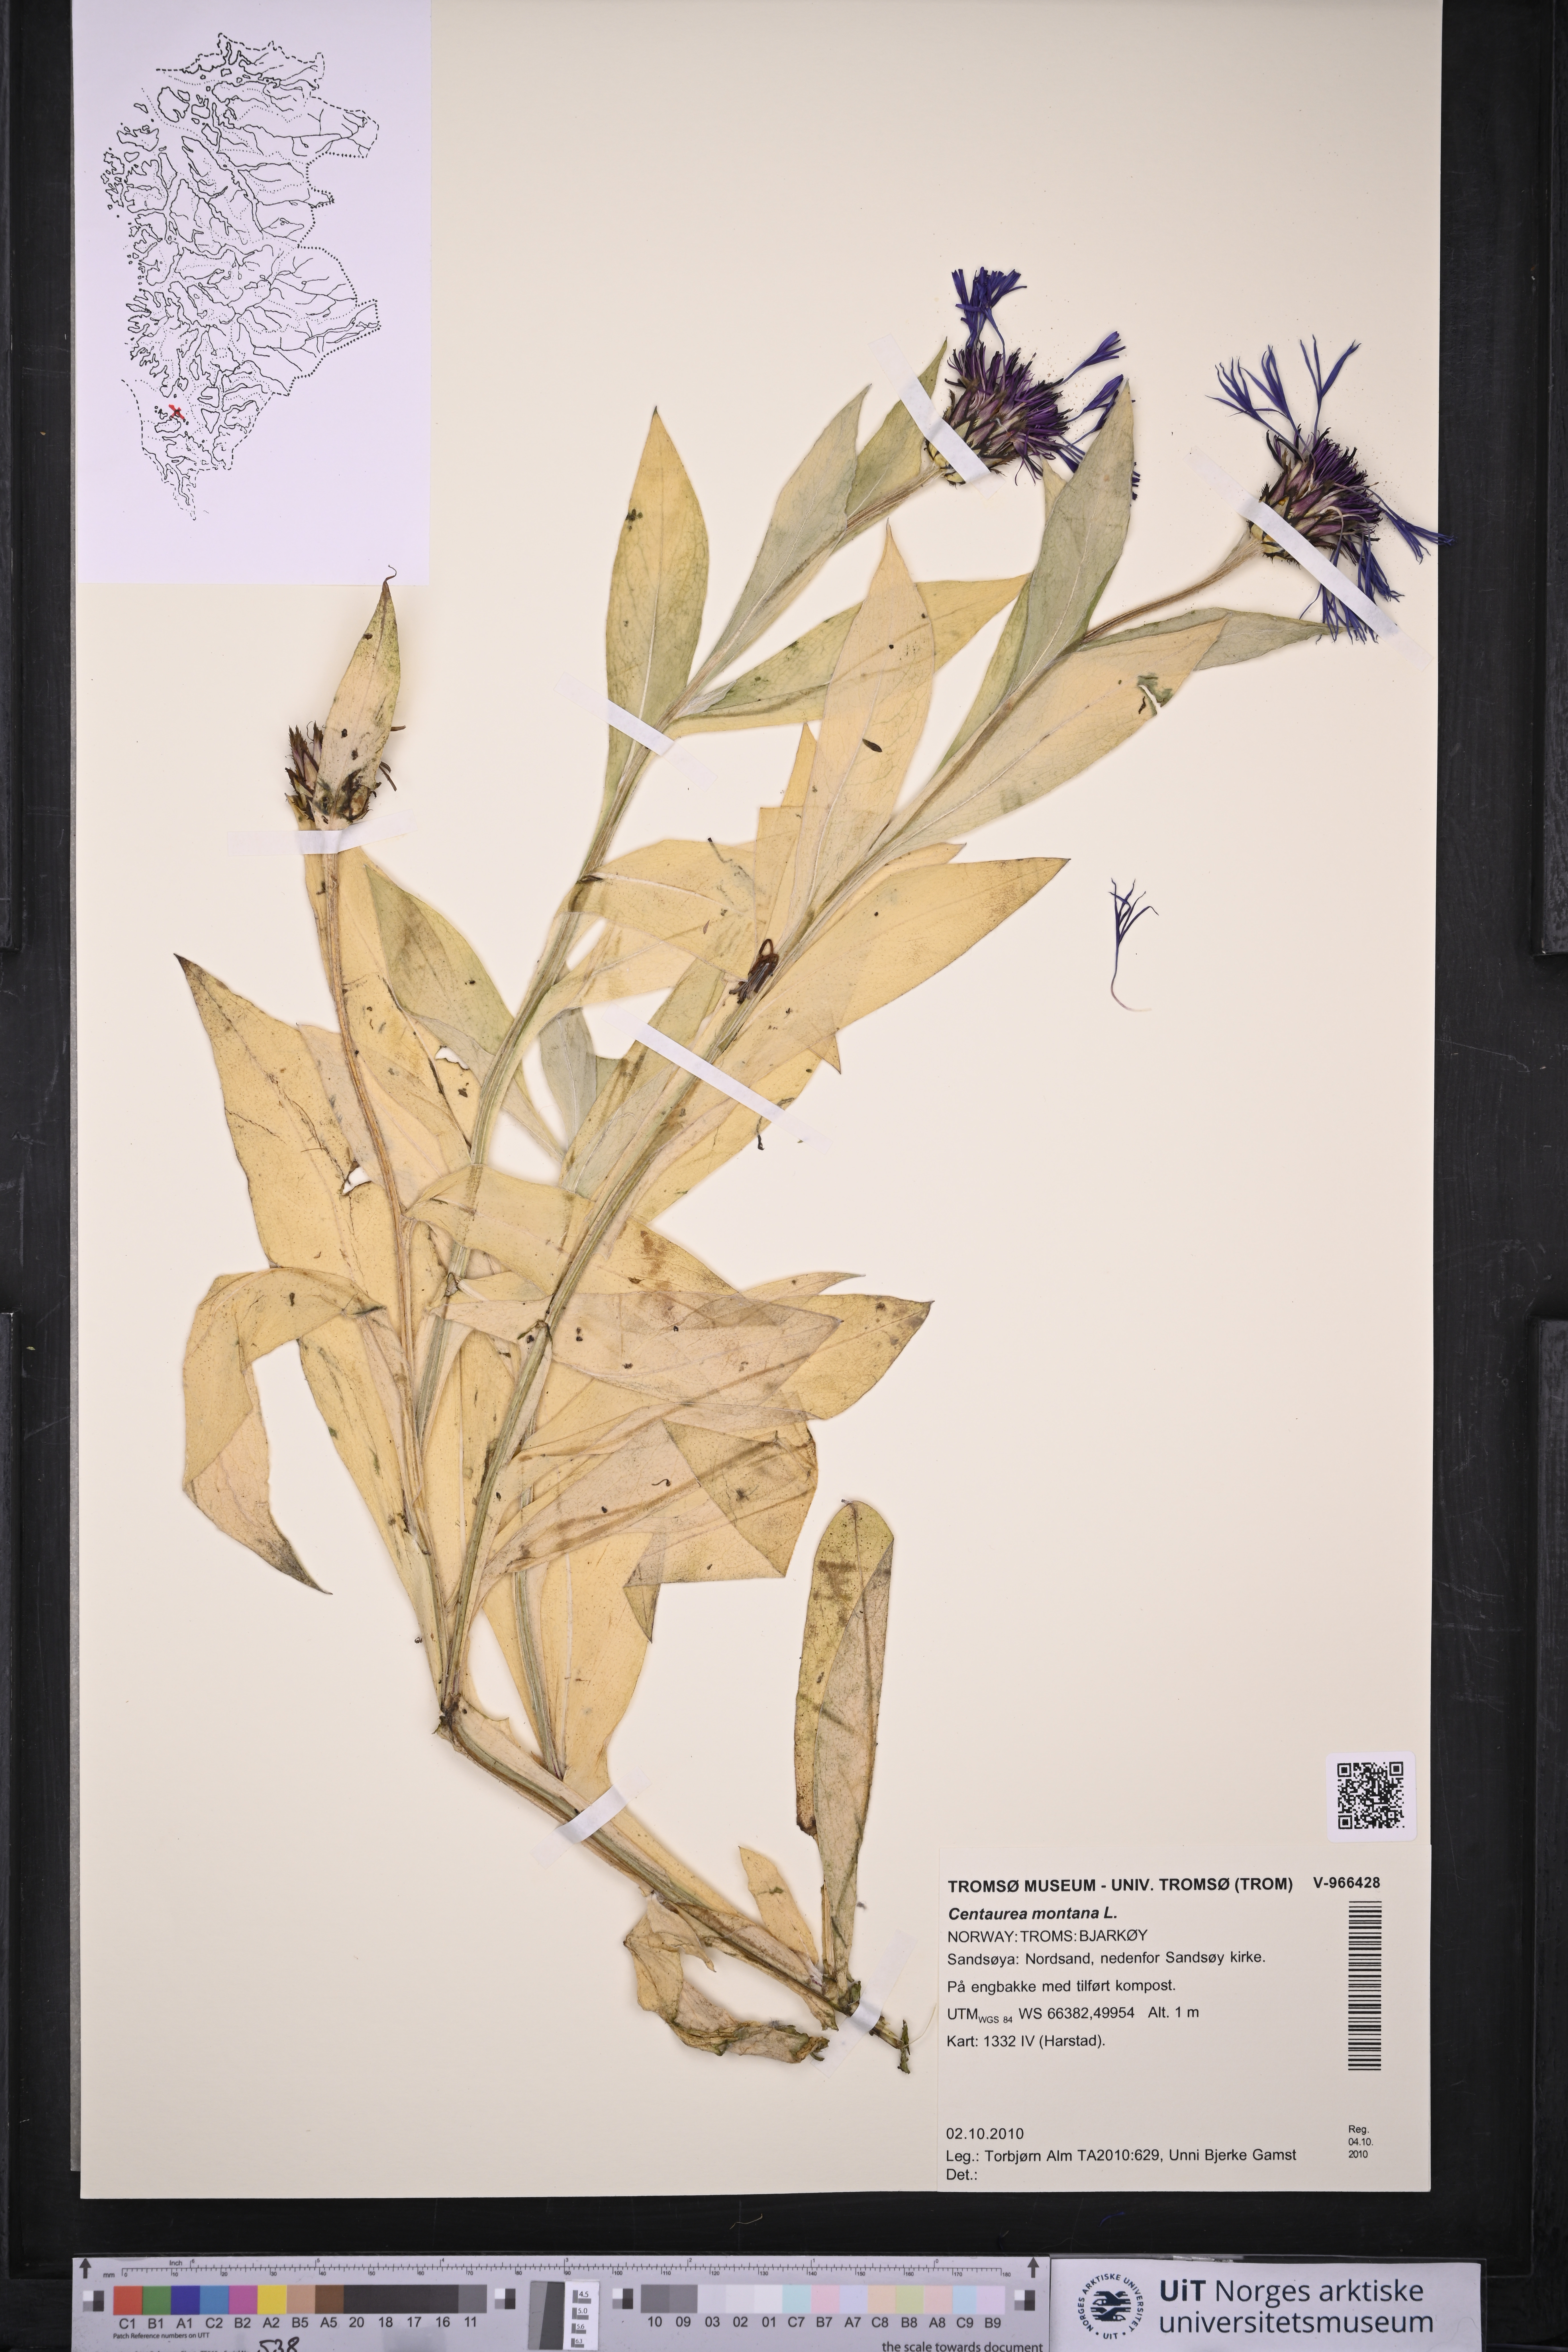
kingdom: Plantae
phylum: Tracheophyta
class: Magnoliopsida
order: Asterales
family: Asteraceae
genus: Centaurea
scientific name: Centaurea montana
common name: Perennial cornflower
